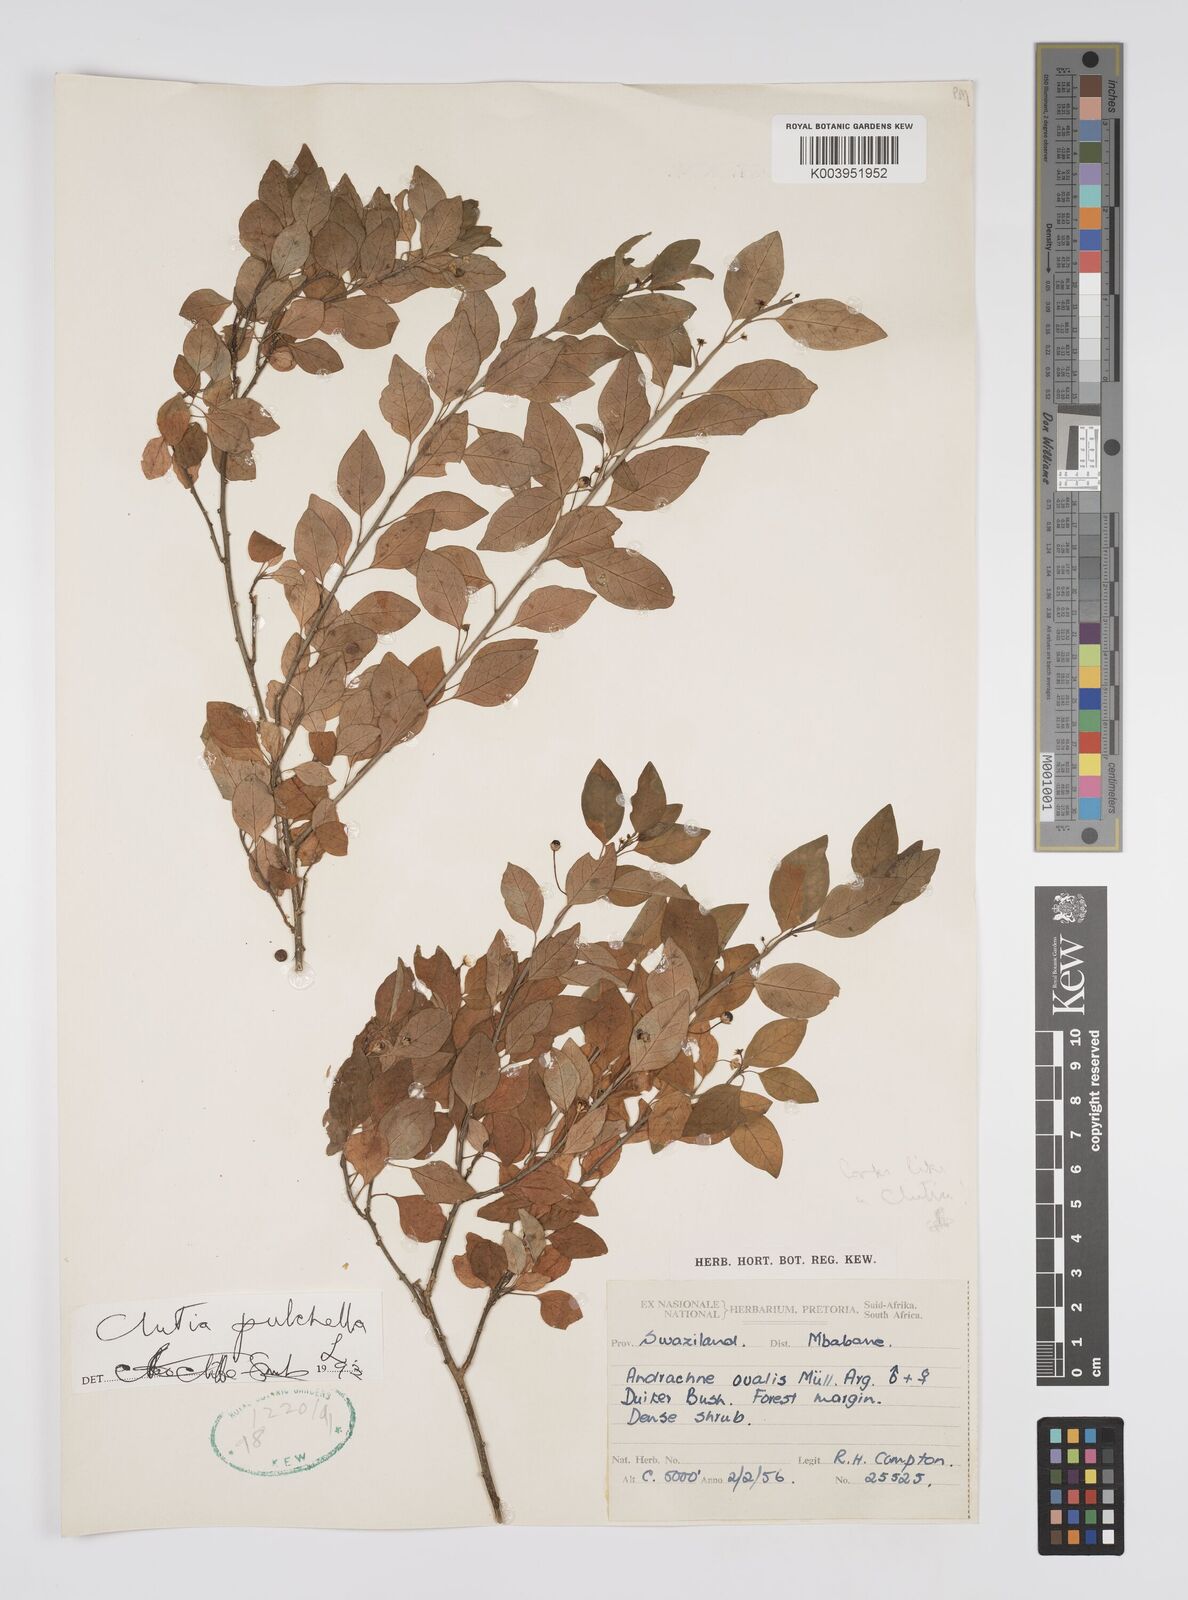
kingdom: Plantae
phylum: Tracheophyta
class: Magnoliopsida
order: Malpighiales
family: Peraceae
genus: Clutia
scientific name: Clutia pulchella
